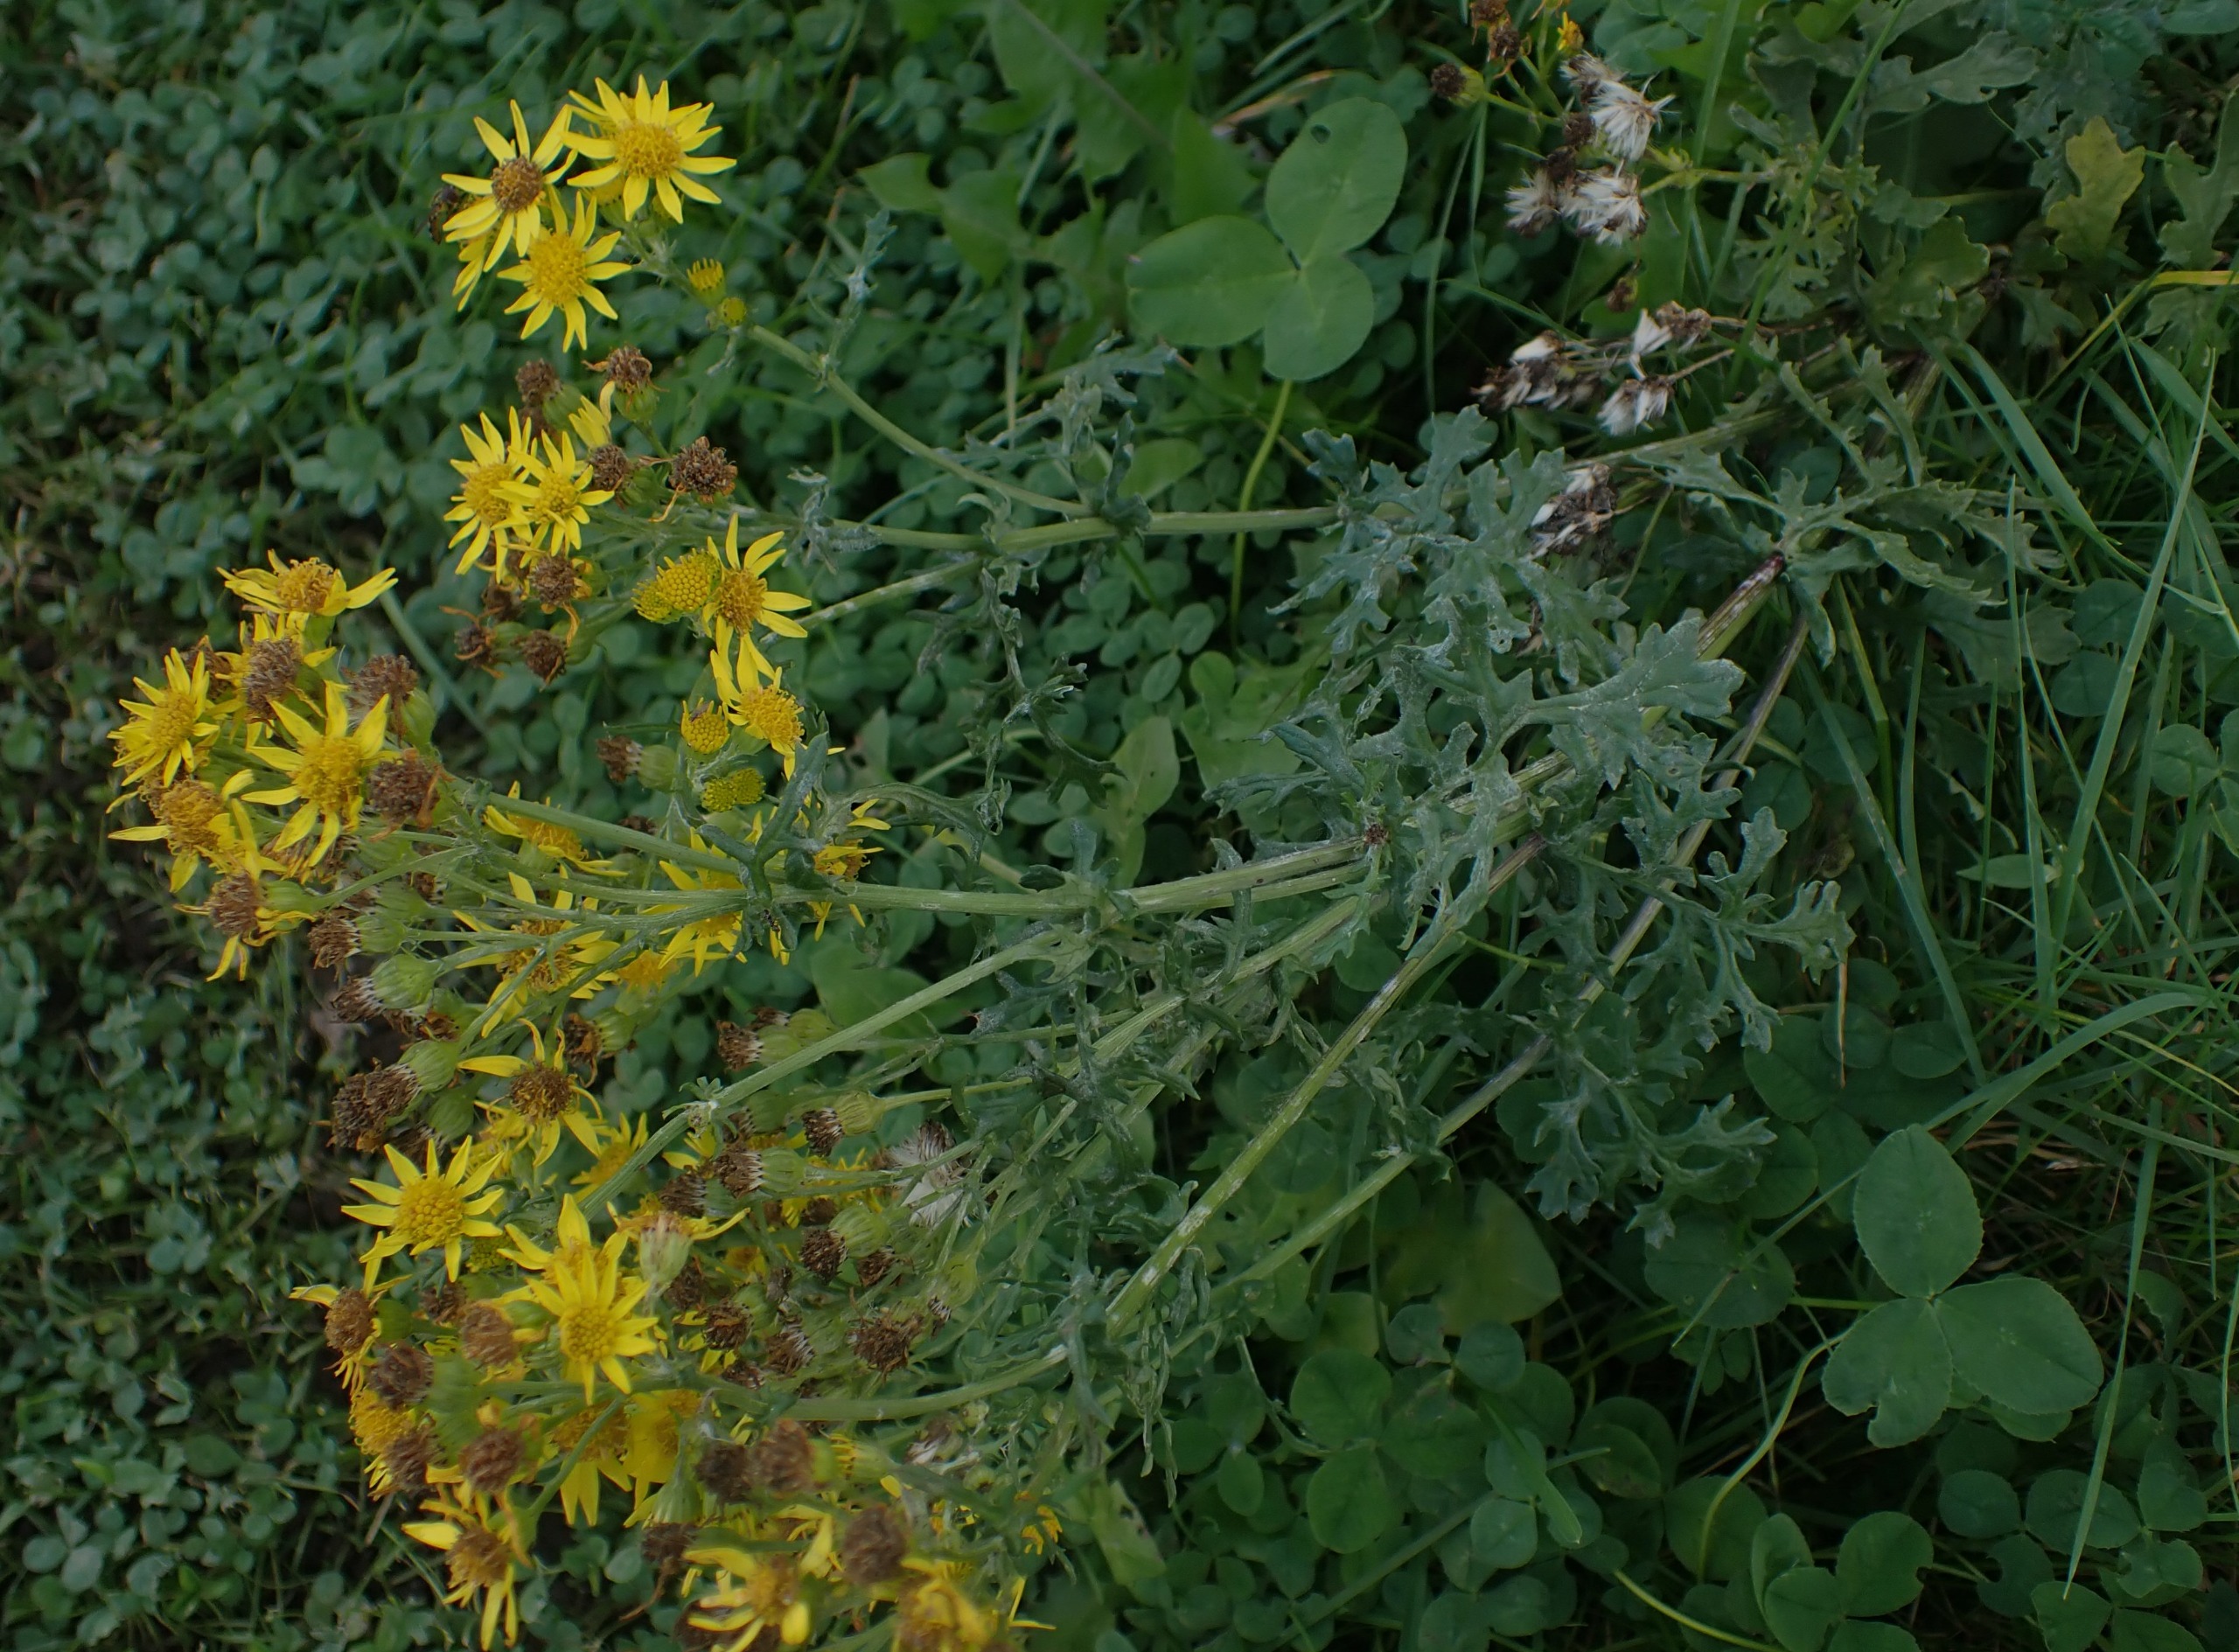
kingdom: Plantae
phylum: Tracheophyta
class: Magnoliopsida
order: Asterales
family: Asteraceae
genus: Jacobaea
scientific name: Jacobaea vulgaris
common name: Eng-brandbæger
